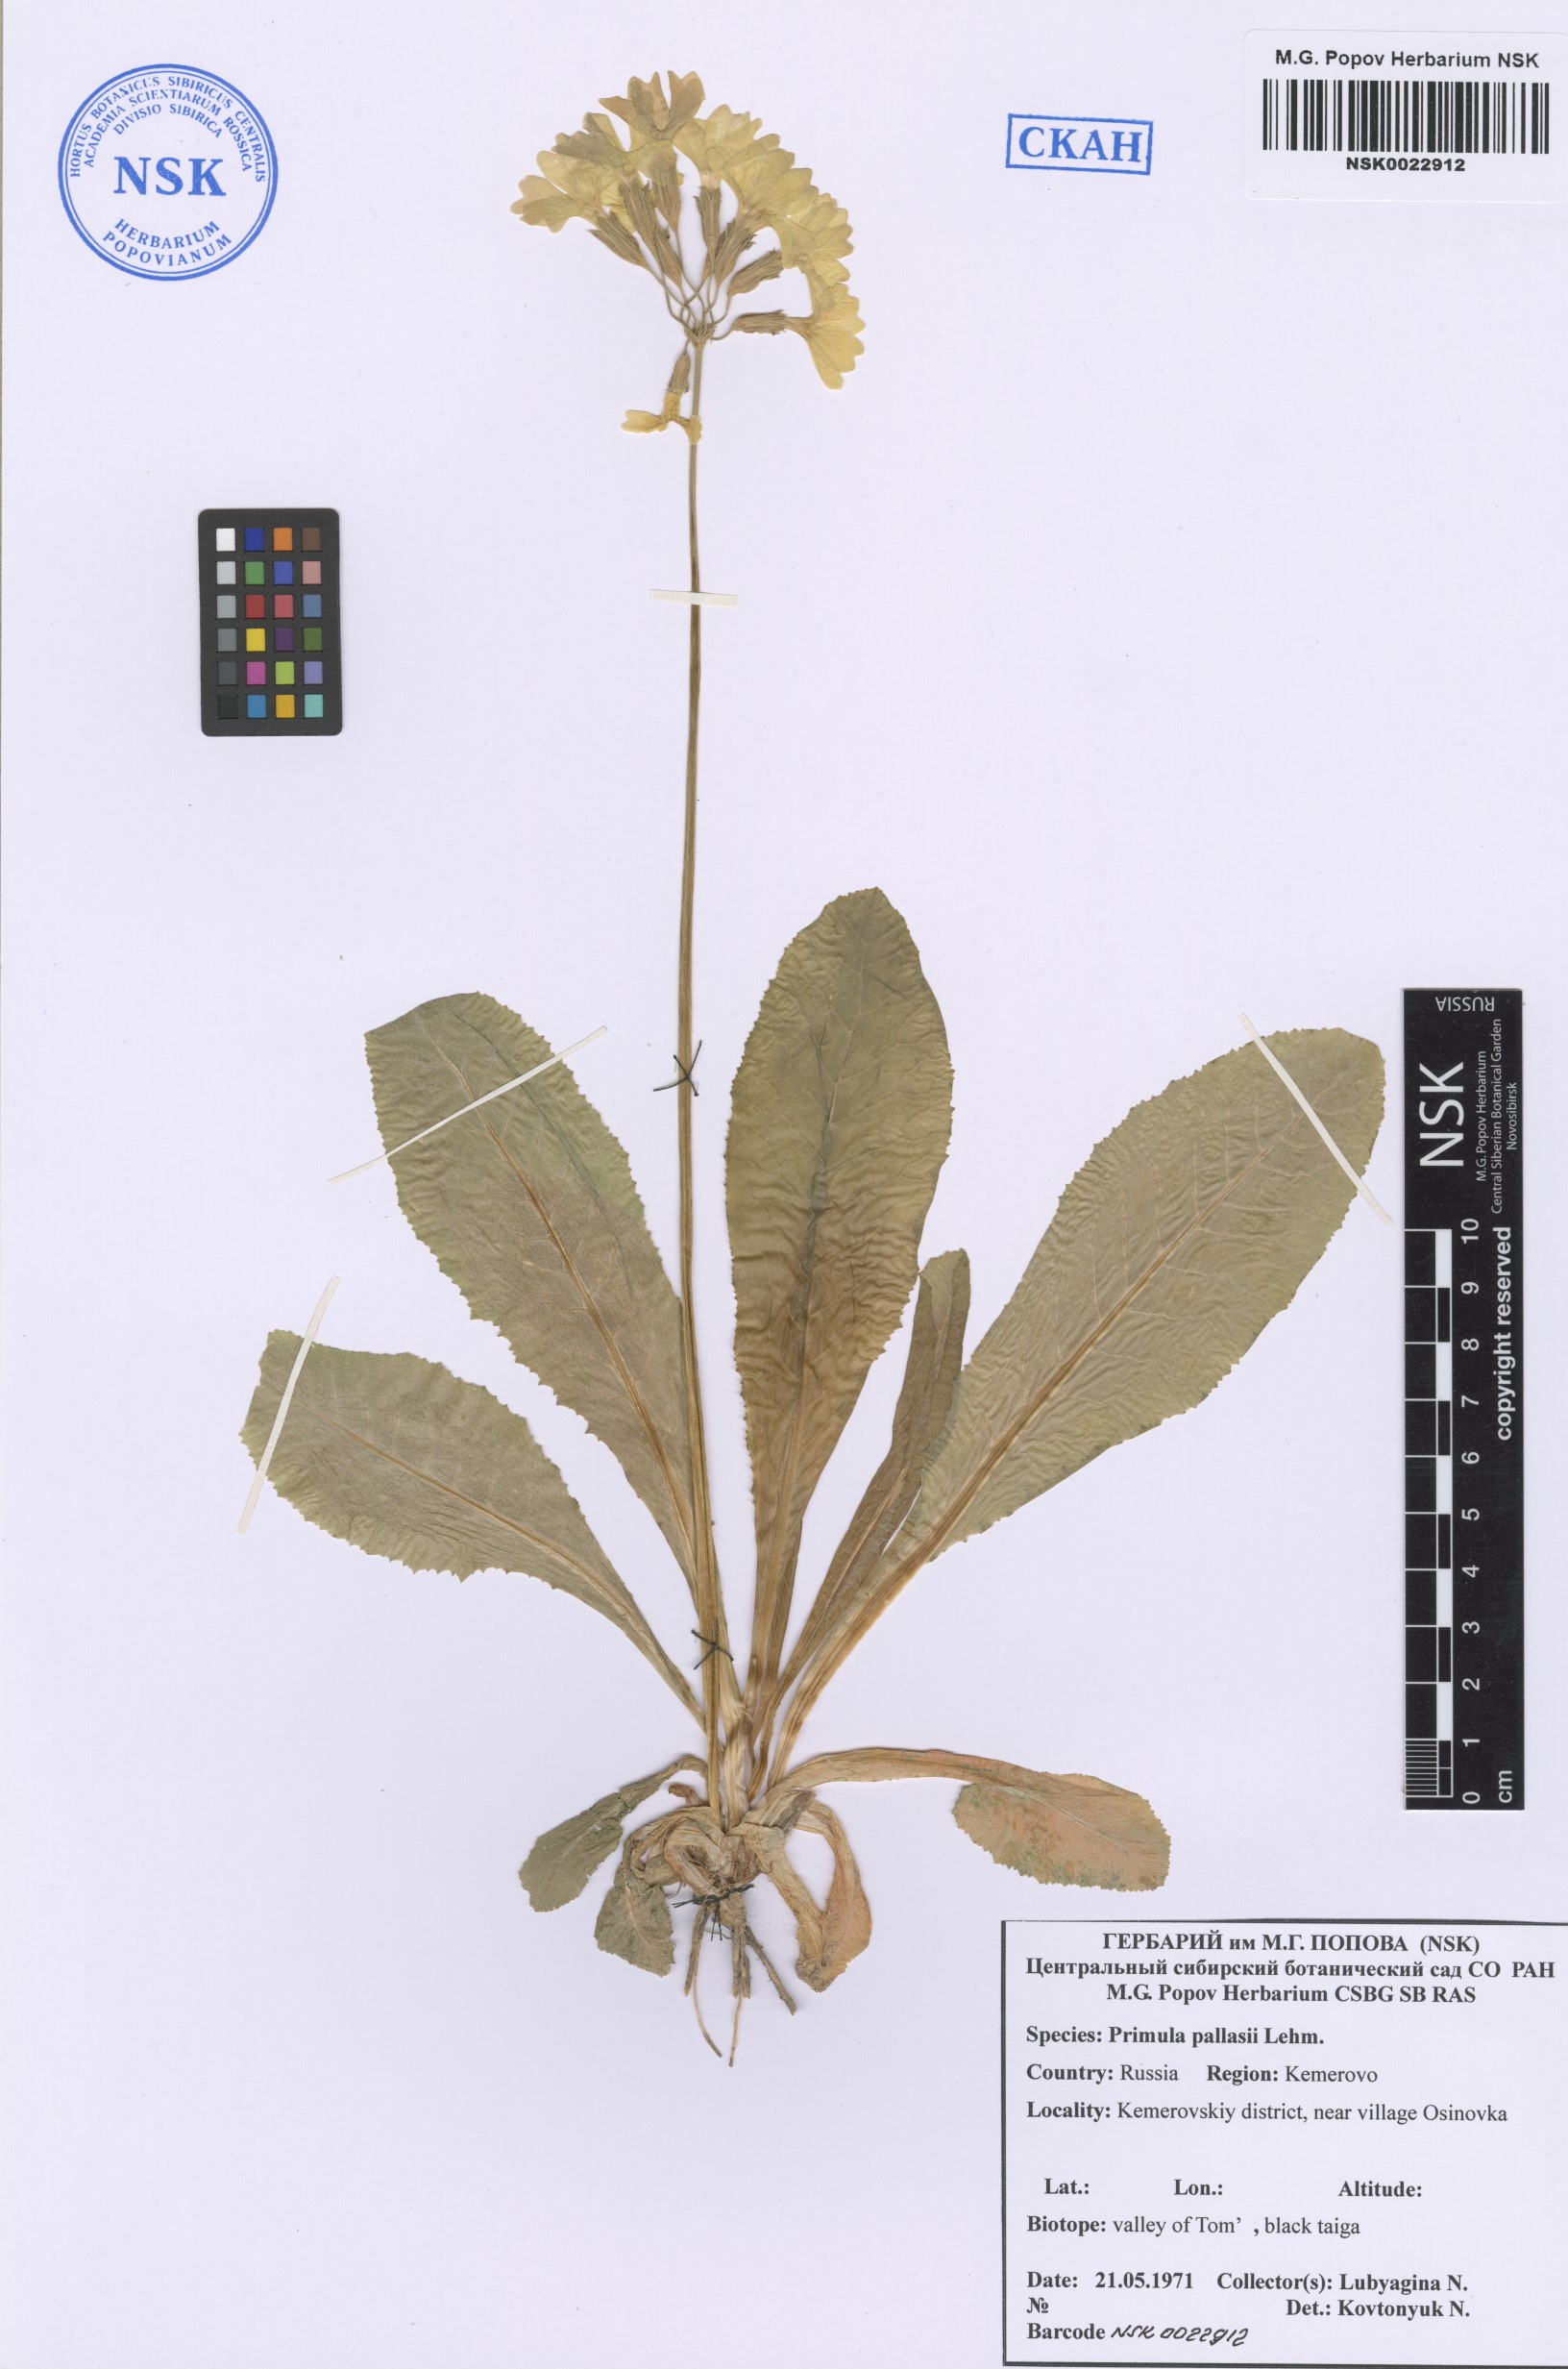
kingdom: Plantae
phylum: Tracheophyta
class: Magnoliopsida
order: Ericales
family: Primulaceae
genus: Primula
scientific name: Primula elatior
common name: Oxlip
